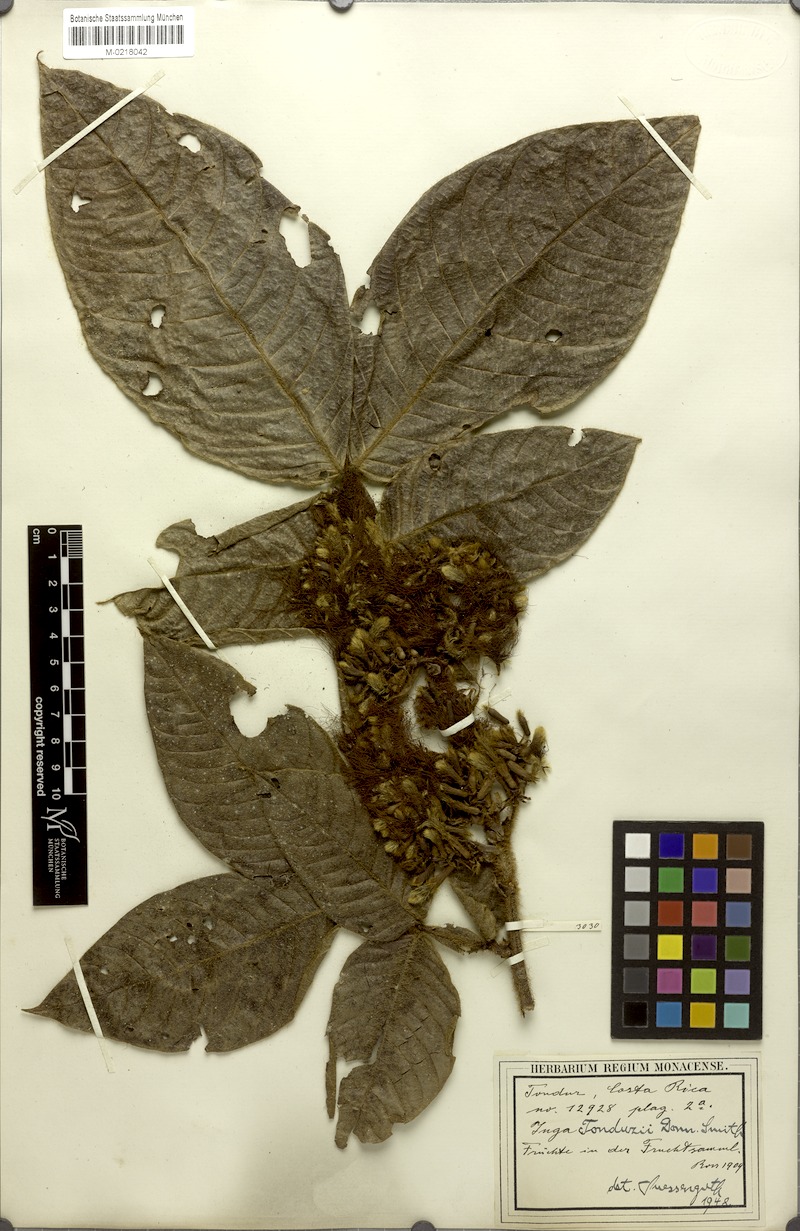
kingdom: Plantae
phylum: Tracheophyta
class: Magnoliopsida
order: Fabales
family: Fabaceae
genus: Inga
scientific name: Inga tonduzii
